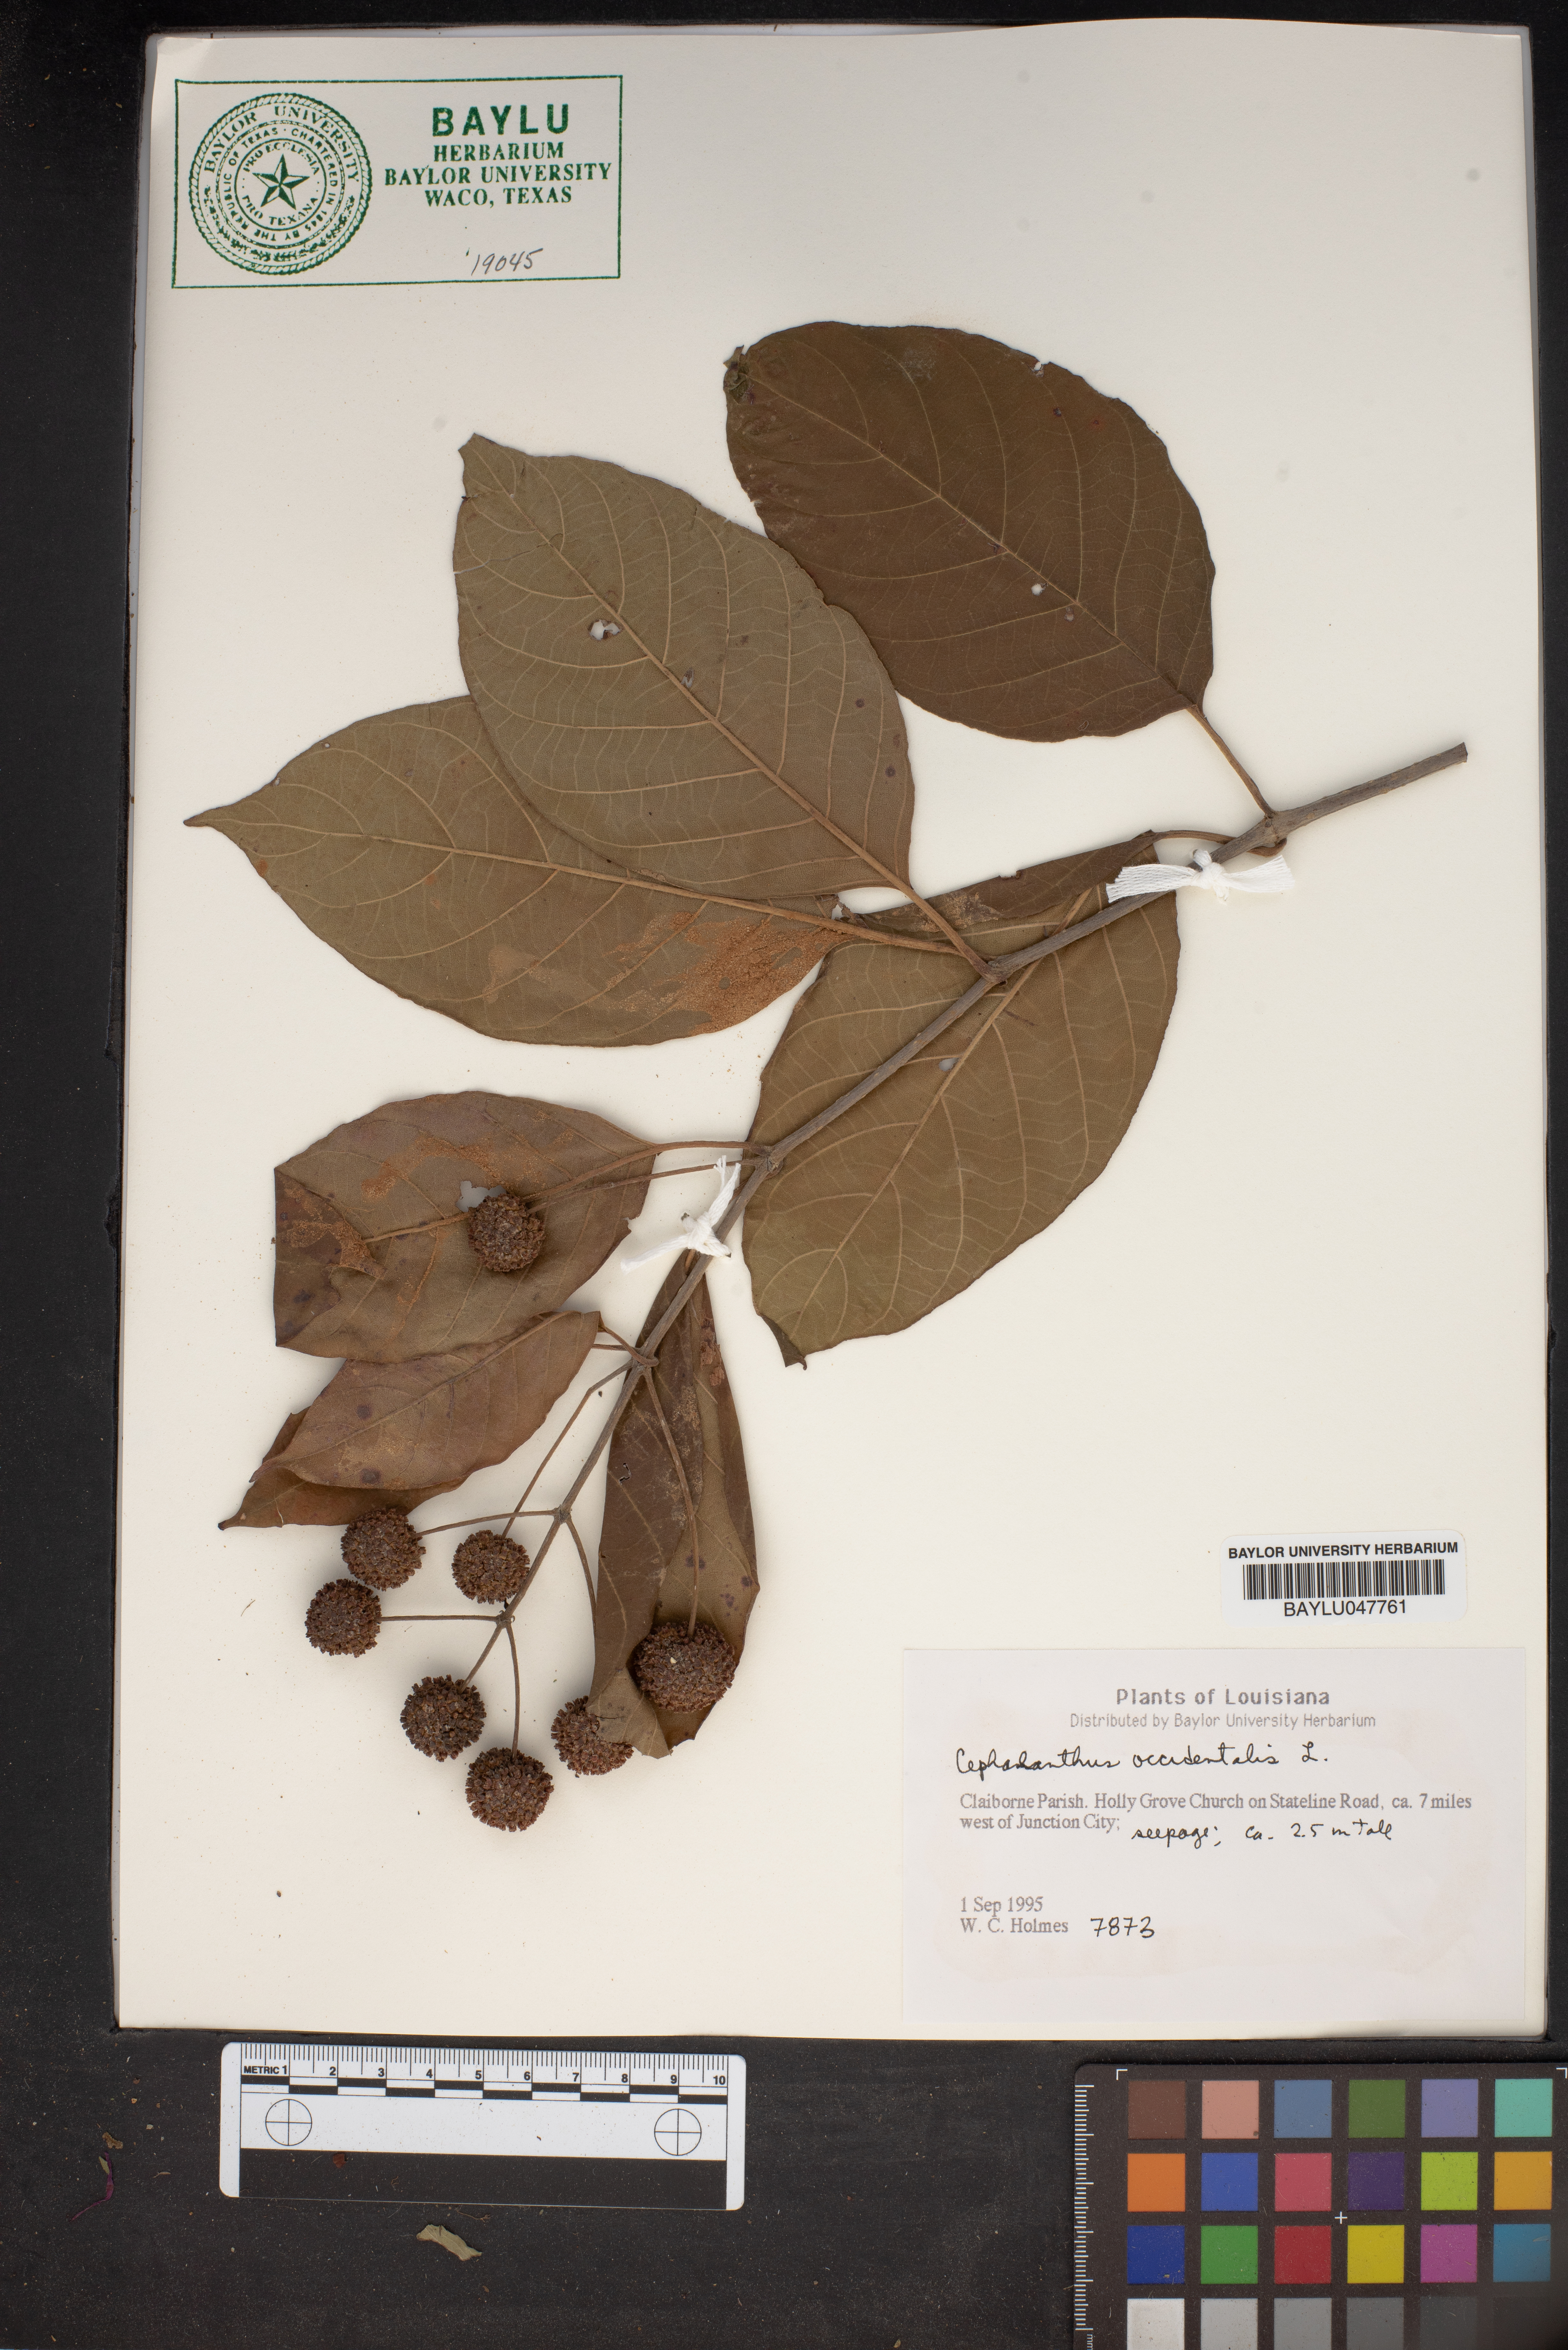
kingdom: Plantae
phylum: Tracheophyta
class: Magnoliopsida
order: Gentianales
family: Rubiaceae
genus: Cephalanthus
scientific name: Cephalanthus occidentalis
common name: Button-willow
